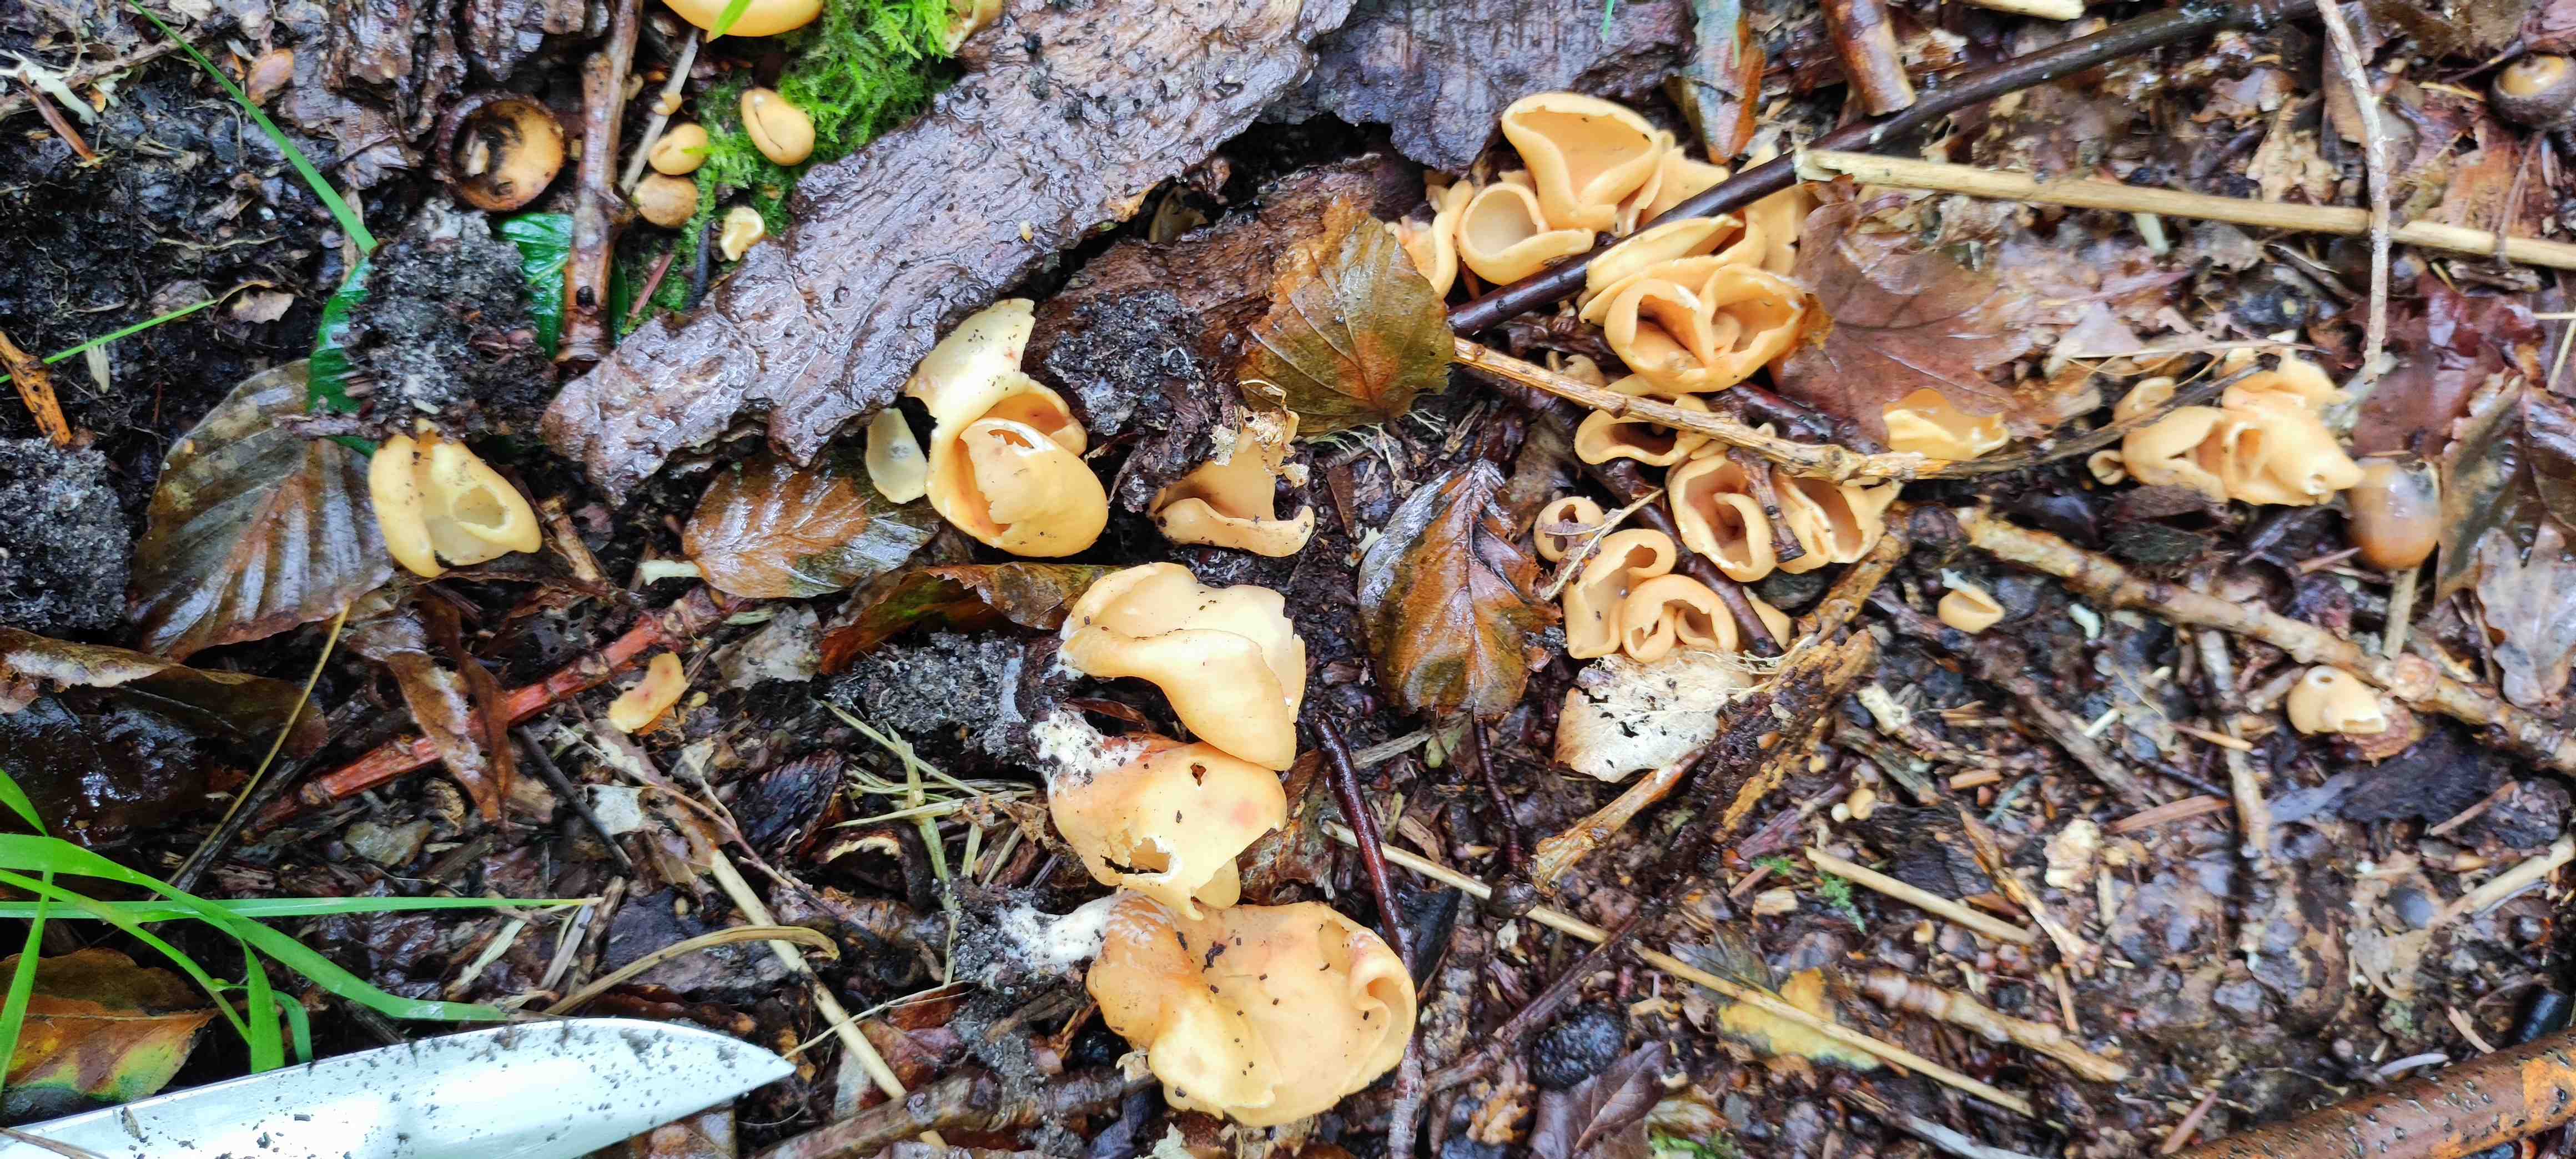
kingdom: Fungi
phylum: Ascomycota
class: Pezizomycetes
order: Pezizales
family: Otideaceae
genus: Otidea
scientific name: Otidea onotica
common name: æsel-ørebæger
